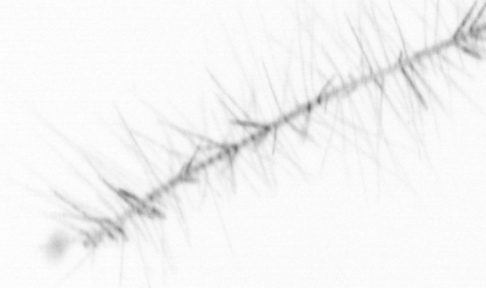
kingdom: Chromista
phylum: Ochrophyta
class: Bacillariophyceae
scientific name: Bacillariophyceae
